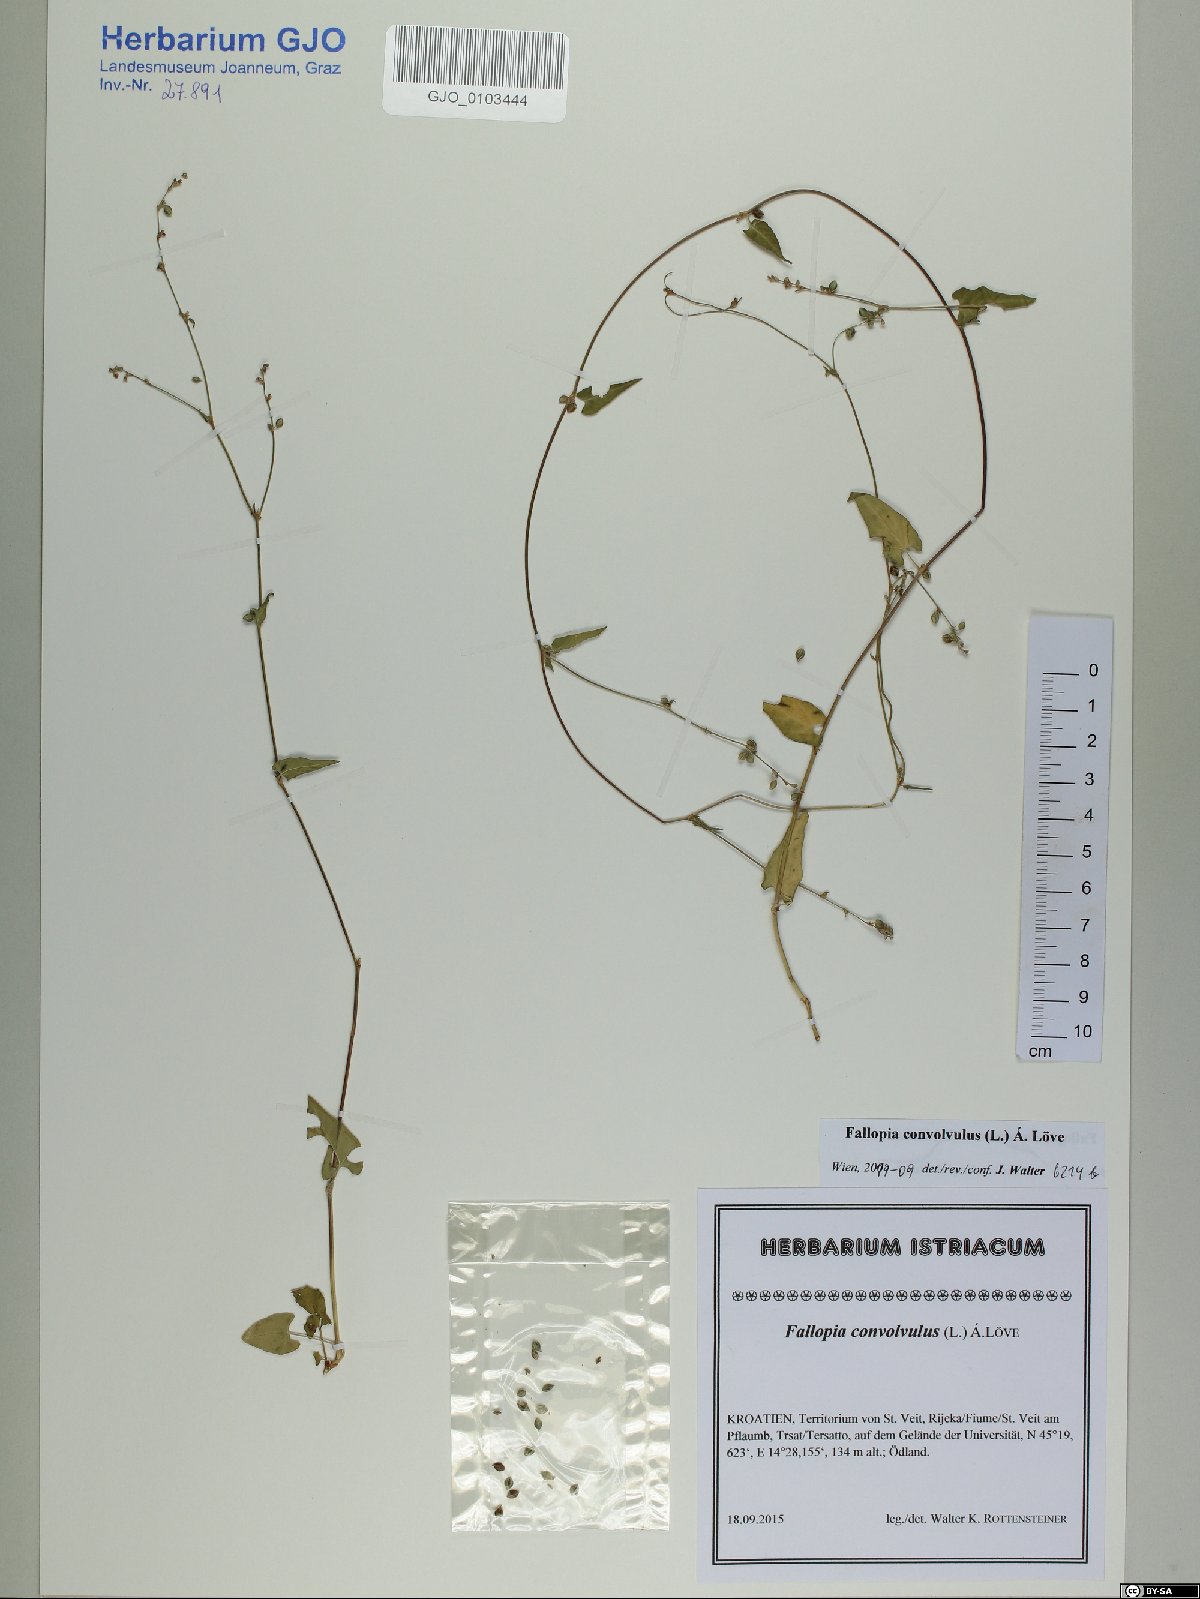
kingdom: Plantae
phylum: Tracheophyta
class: Magnoliopsida
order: Caryophyllales
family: Polygonaceae
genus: Fallopia
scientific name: Fallopia convolvulus
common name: Black bindweed
